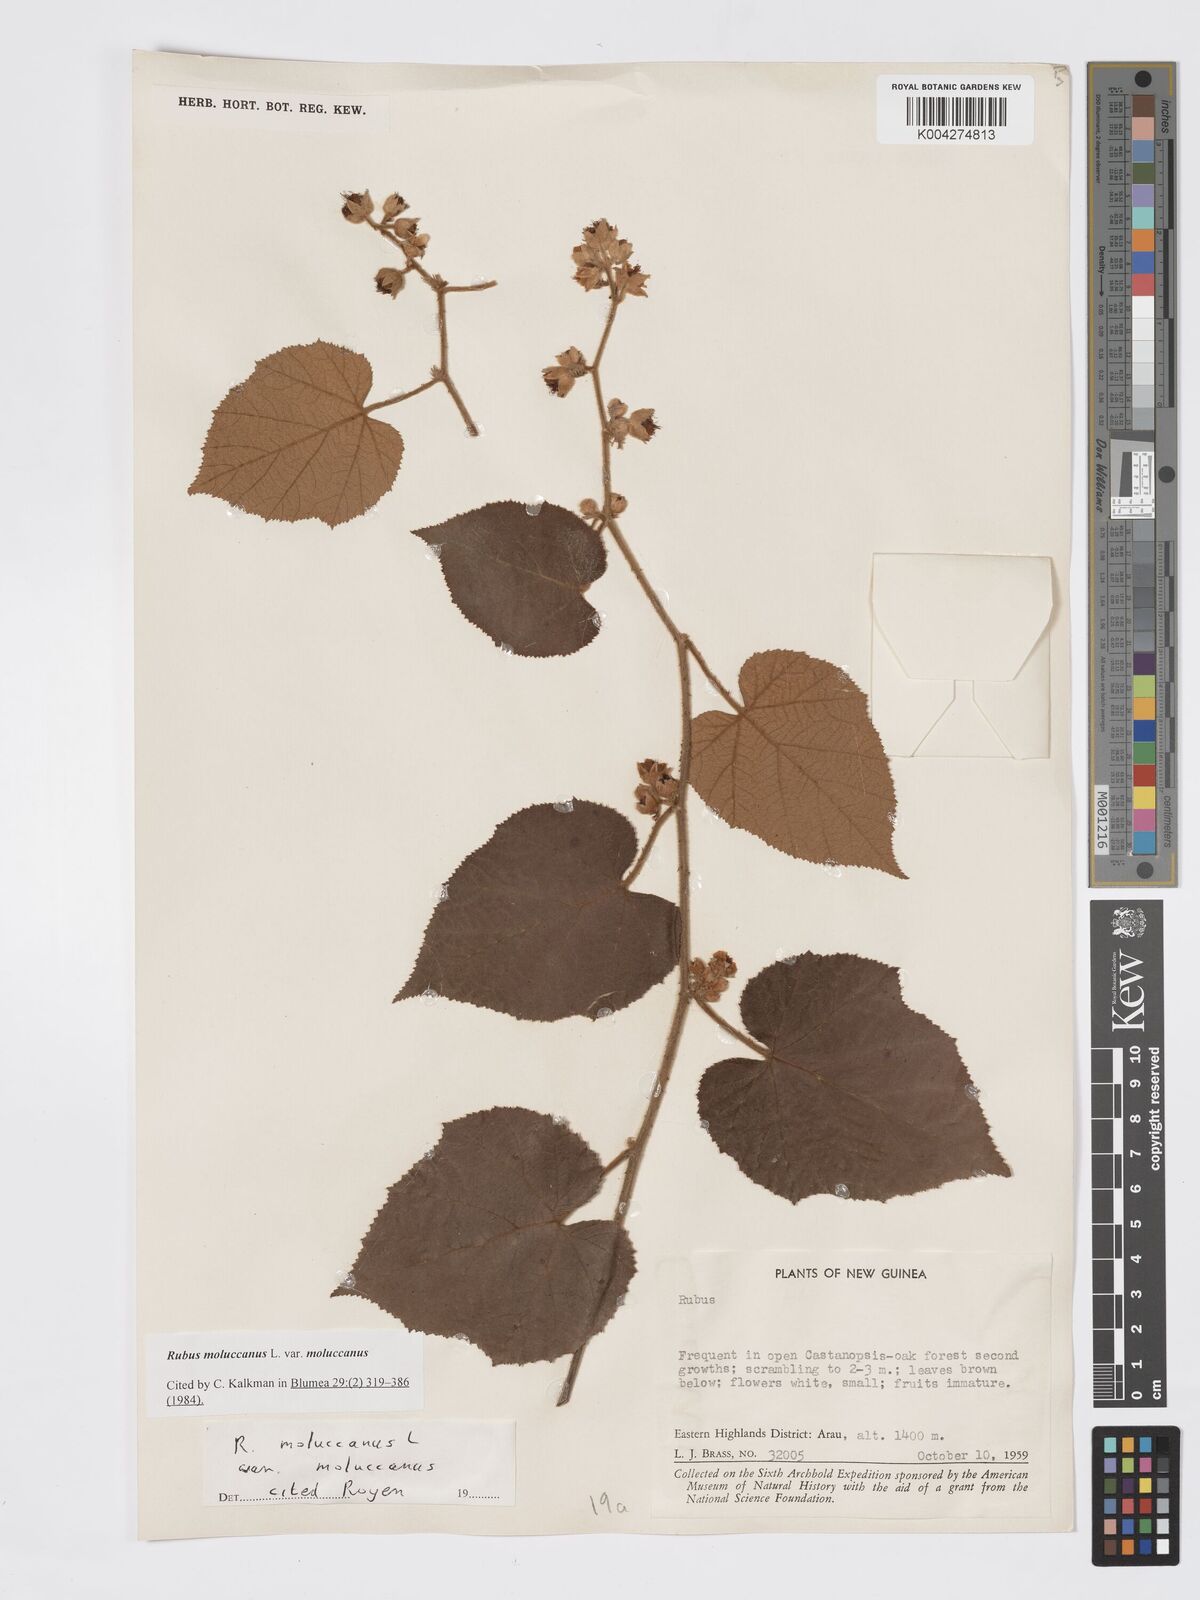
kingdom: Plantae
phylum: Tracheophyta
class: Magnoliopsida
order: Rosales
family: Rosaceae
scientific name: Rosaceae
